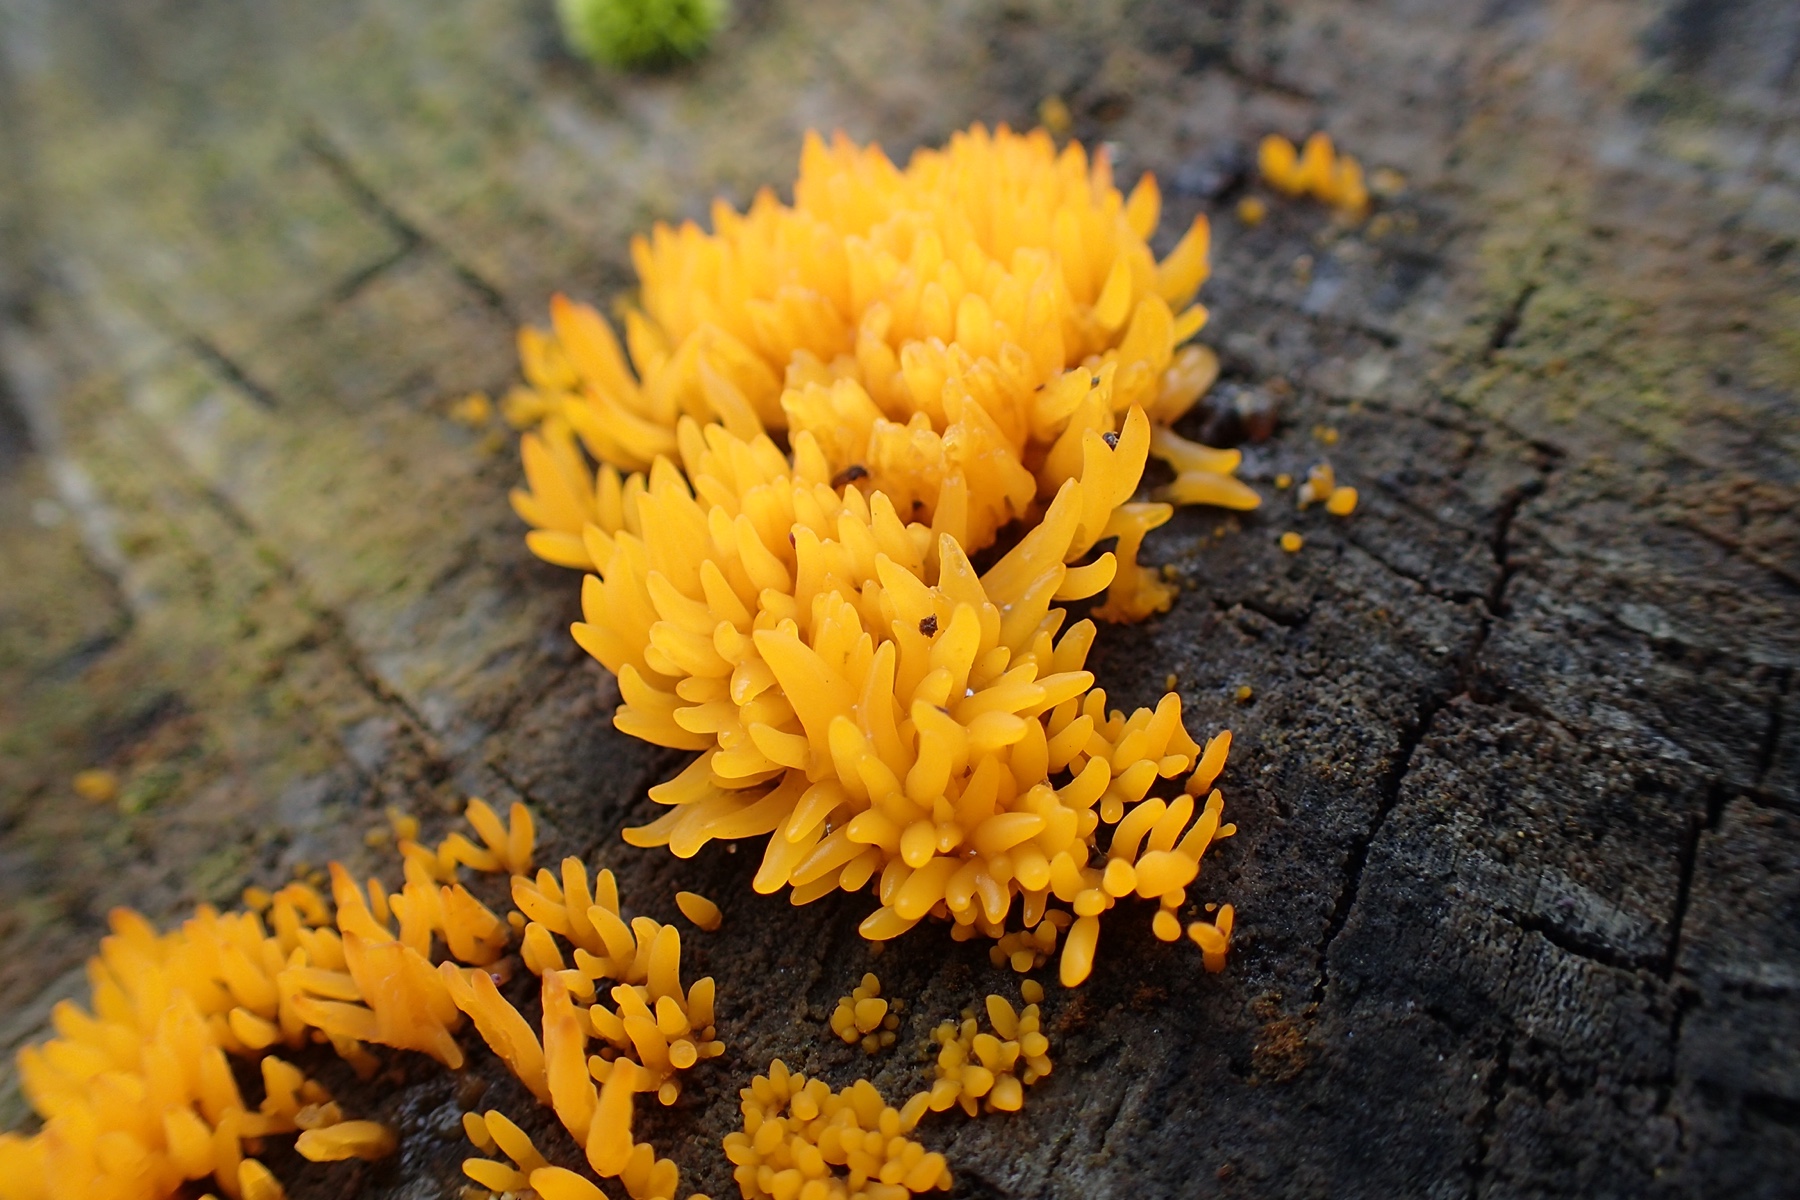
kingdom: Fungi
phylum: Basidiomycota
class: Dacrymycetes
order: Dacrymycetales
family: Dacrymycetaceae
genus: Calocera
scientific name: Calocera cornea
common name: liden guldgaffel
